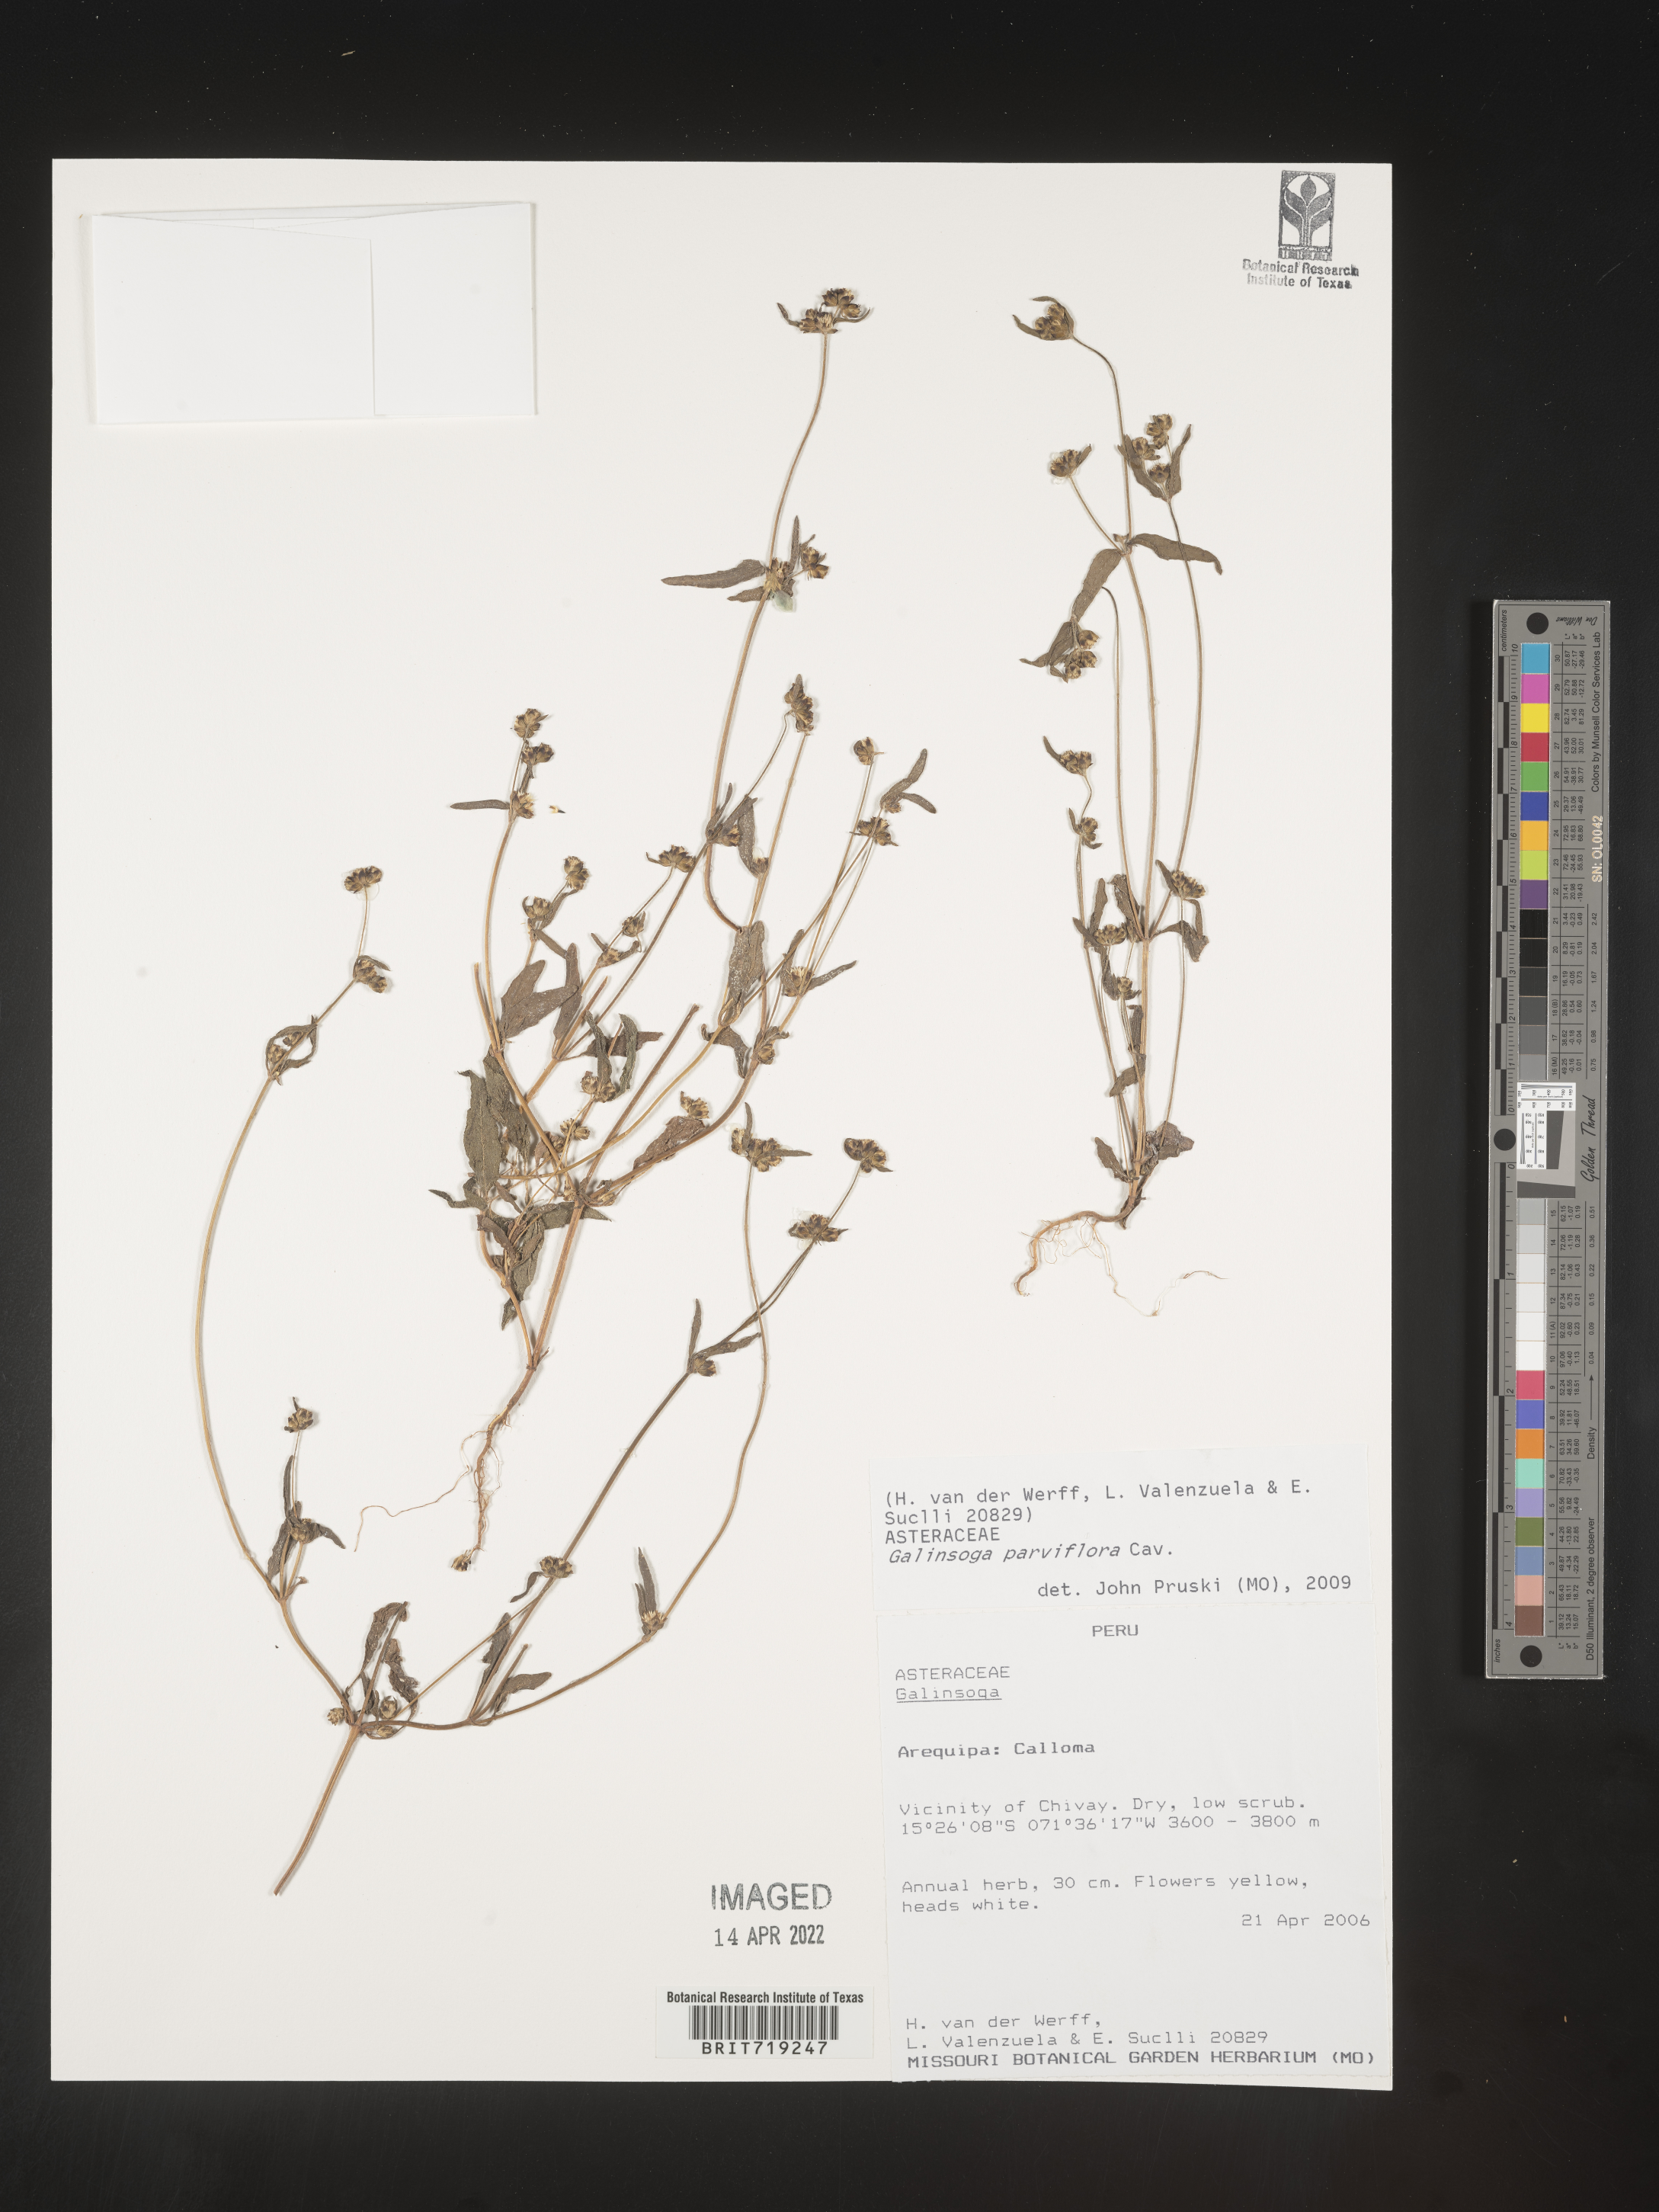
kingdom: Plantae
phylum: Tracheophyta
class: Magnoliopsida
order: Asterales
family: Asteraceae
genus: Galinsoga
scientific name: Galinsoga
